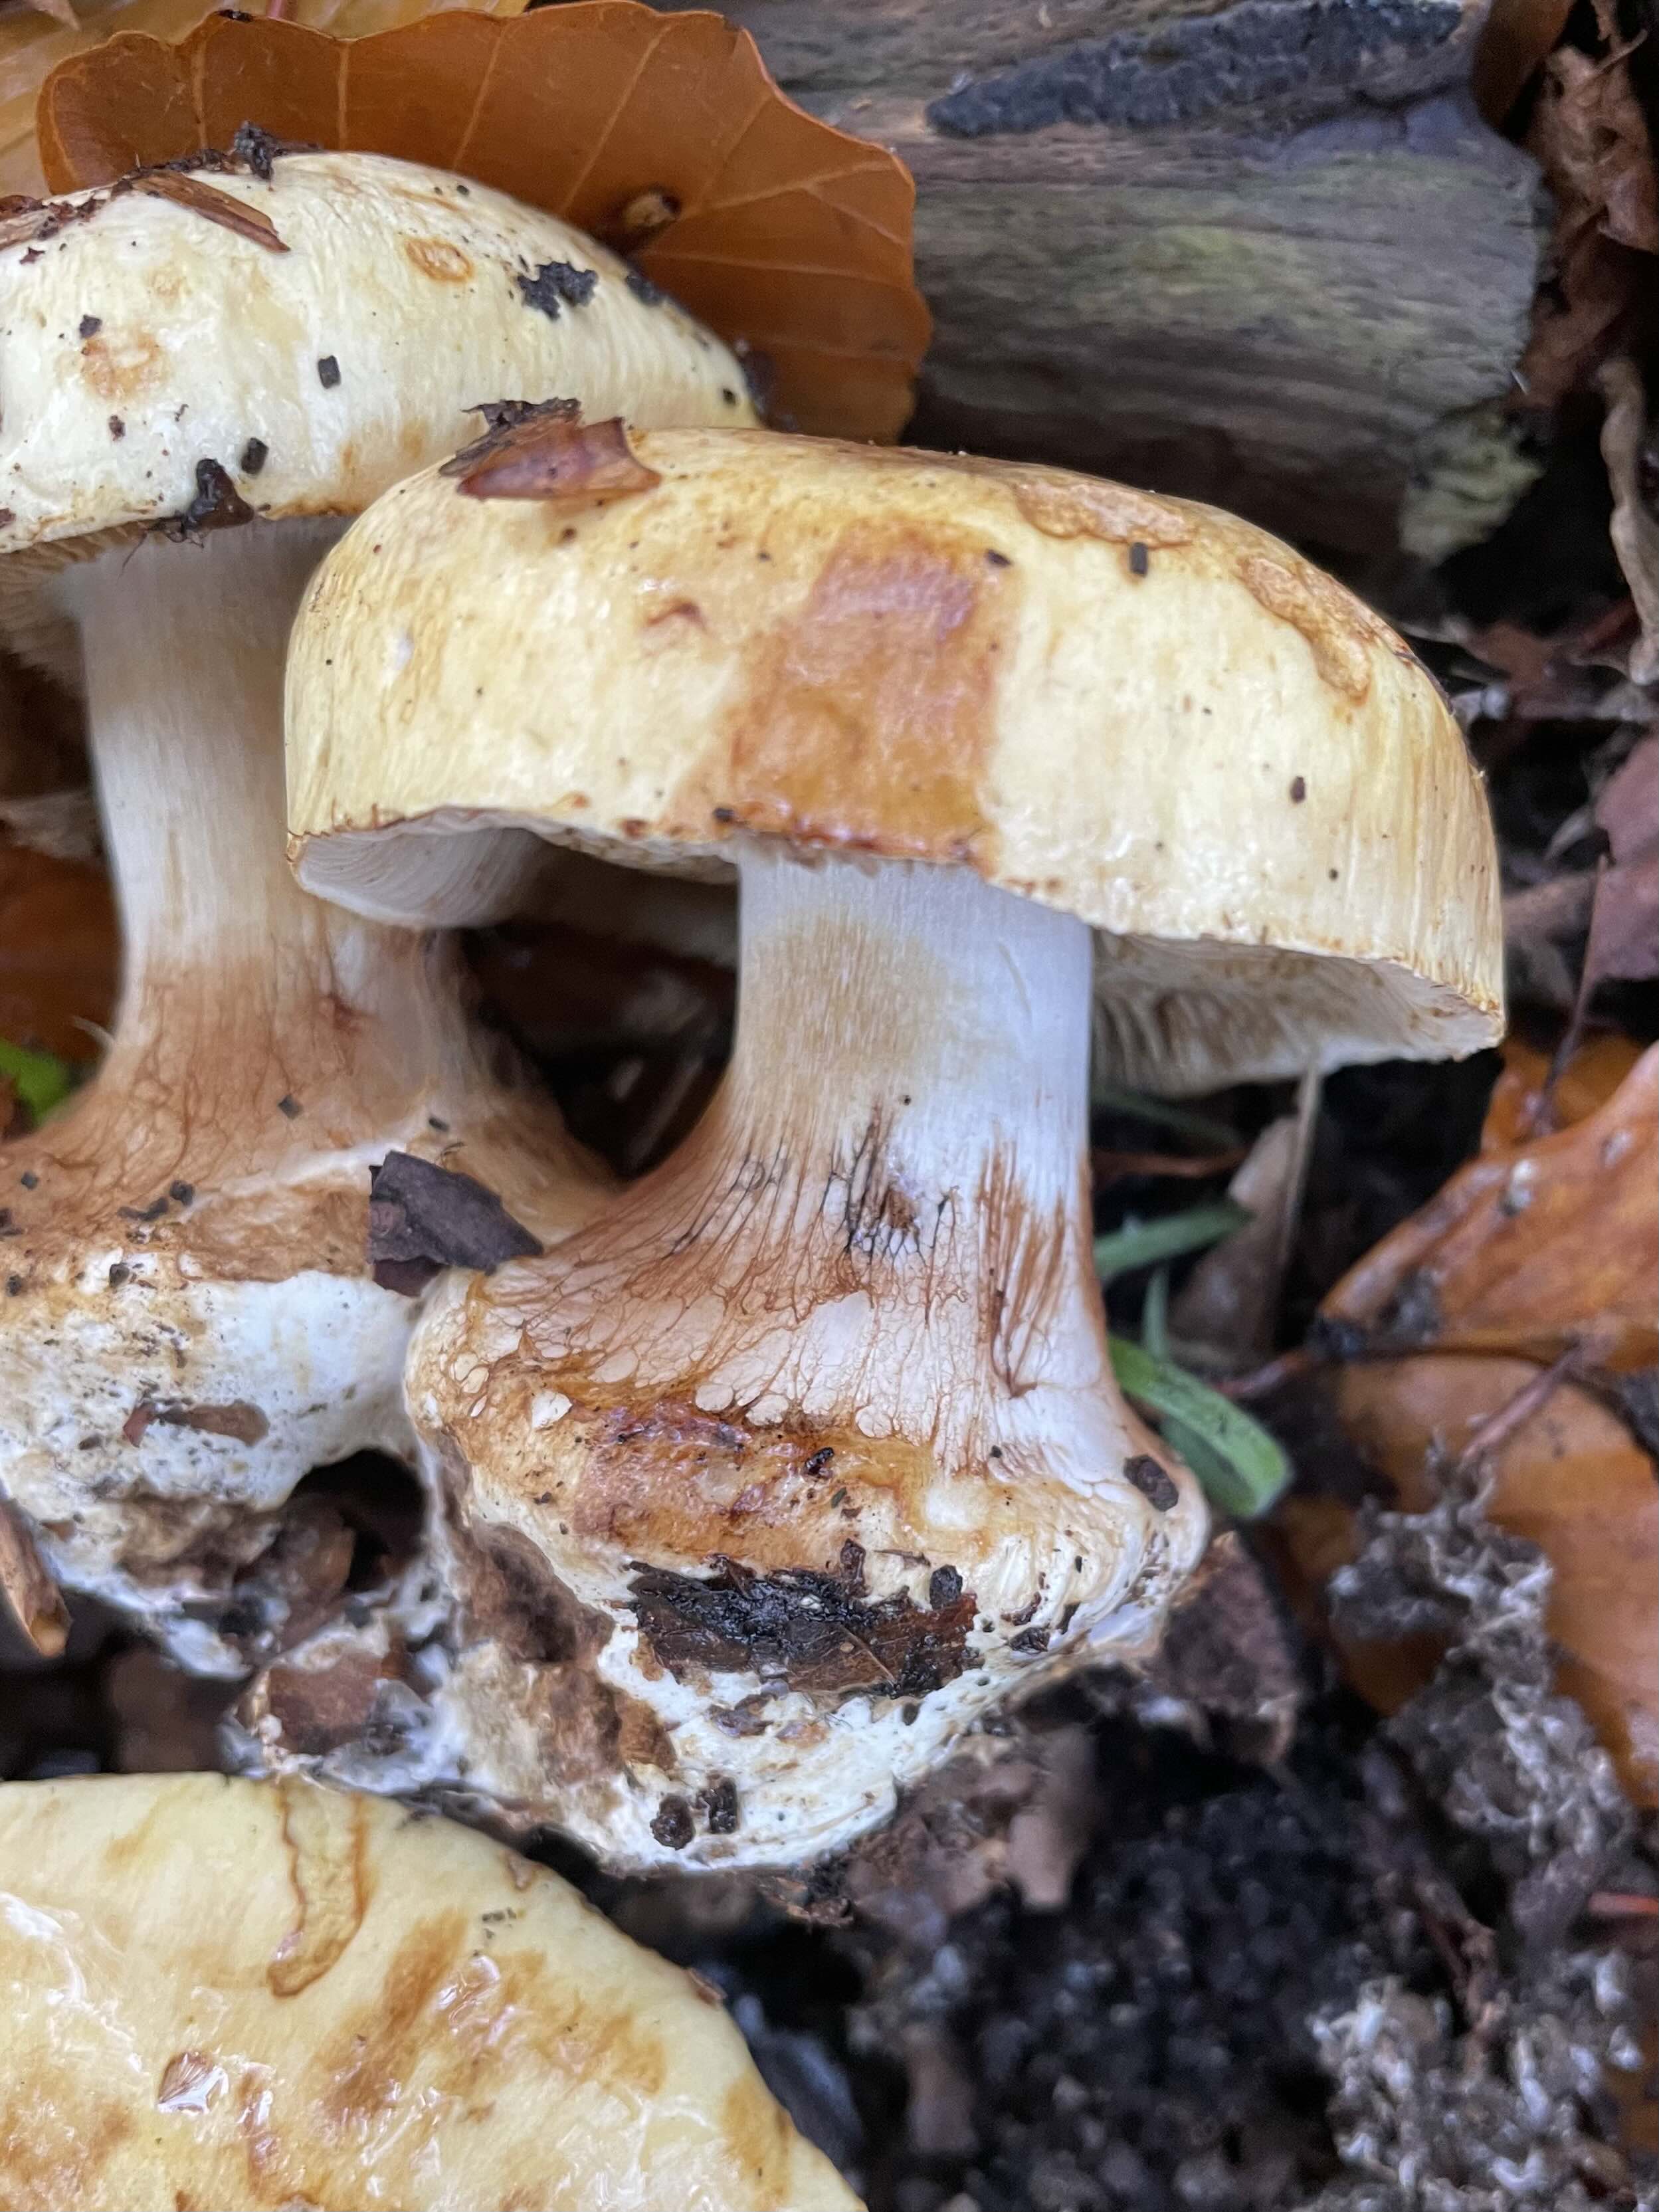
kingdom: Fungi
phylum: Basidiomycota
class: Agaricomycetes
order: Agaricales
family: Cortinariaceae
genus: Calonarius
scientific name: Calonarius osmophorus
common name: duft-slørhat
